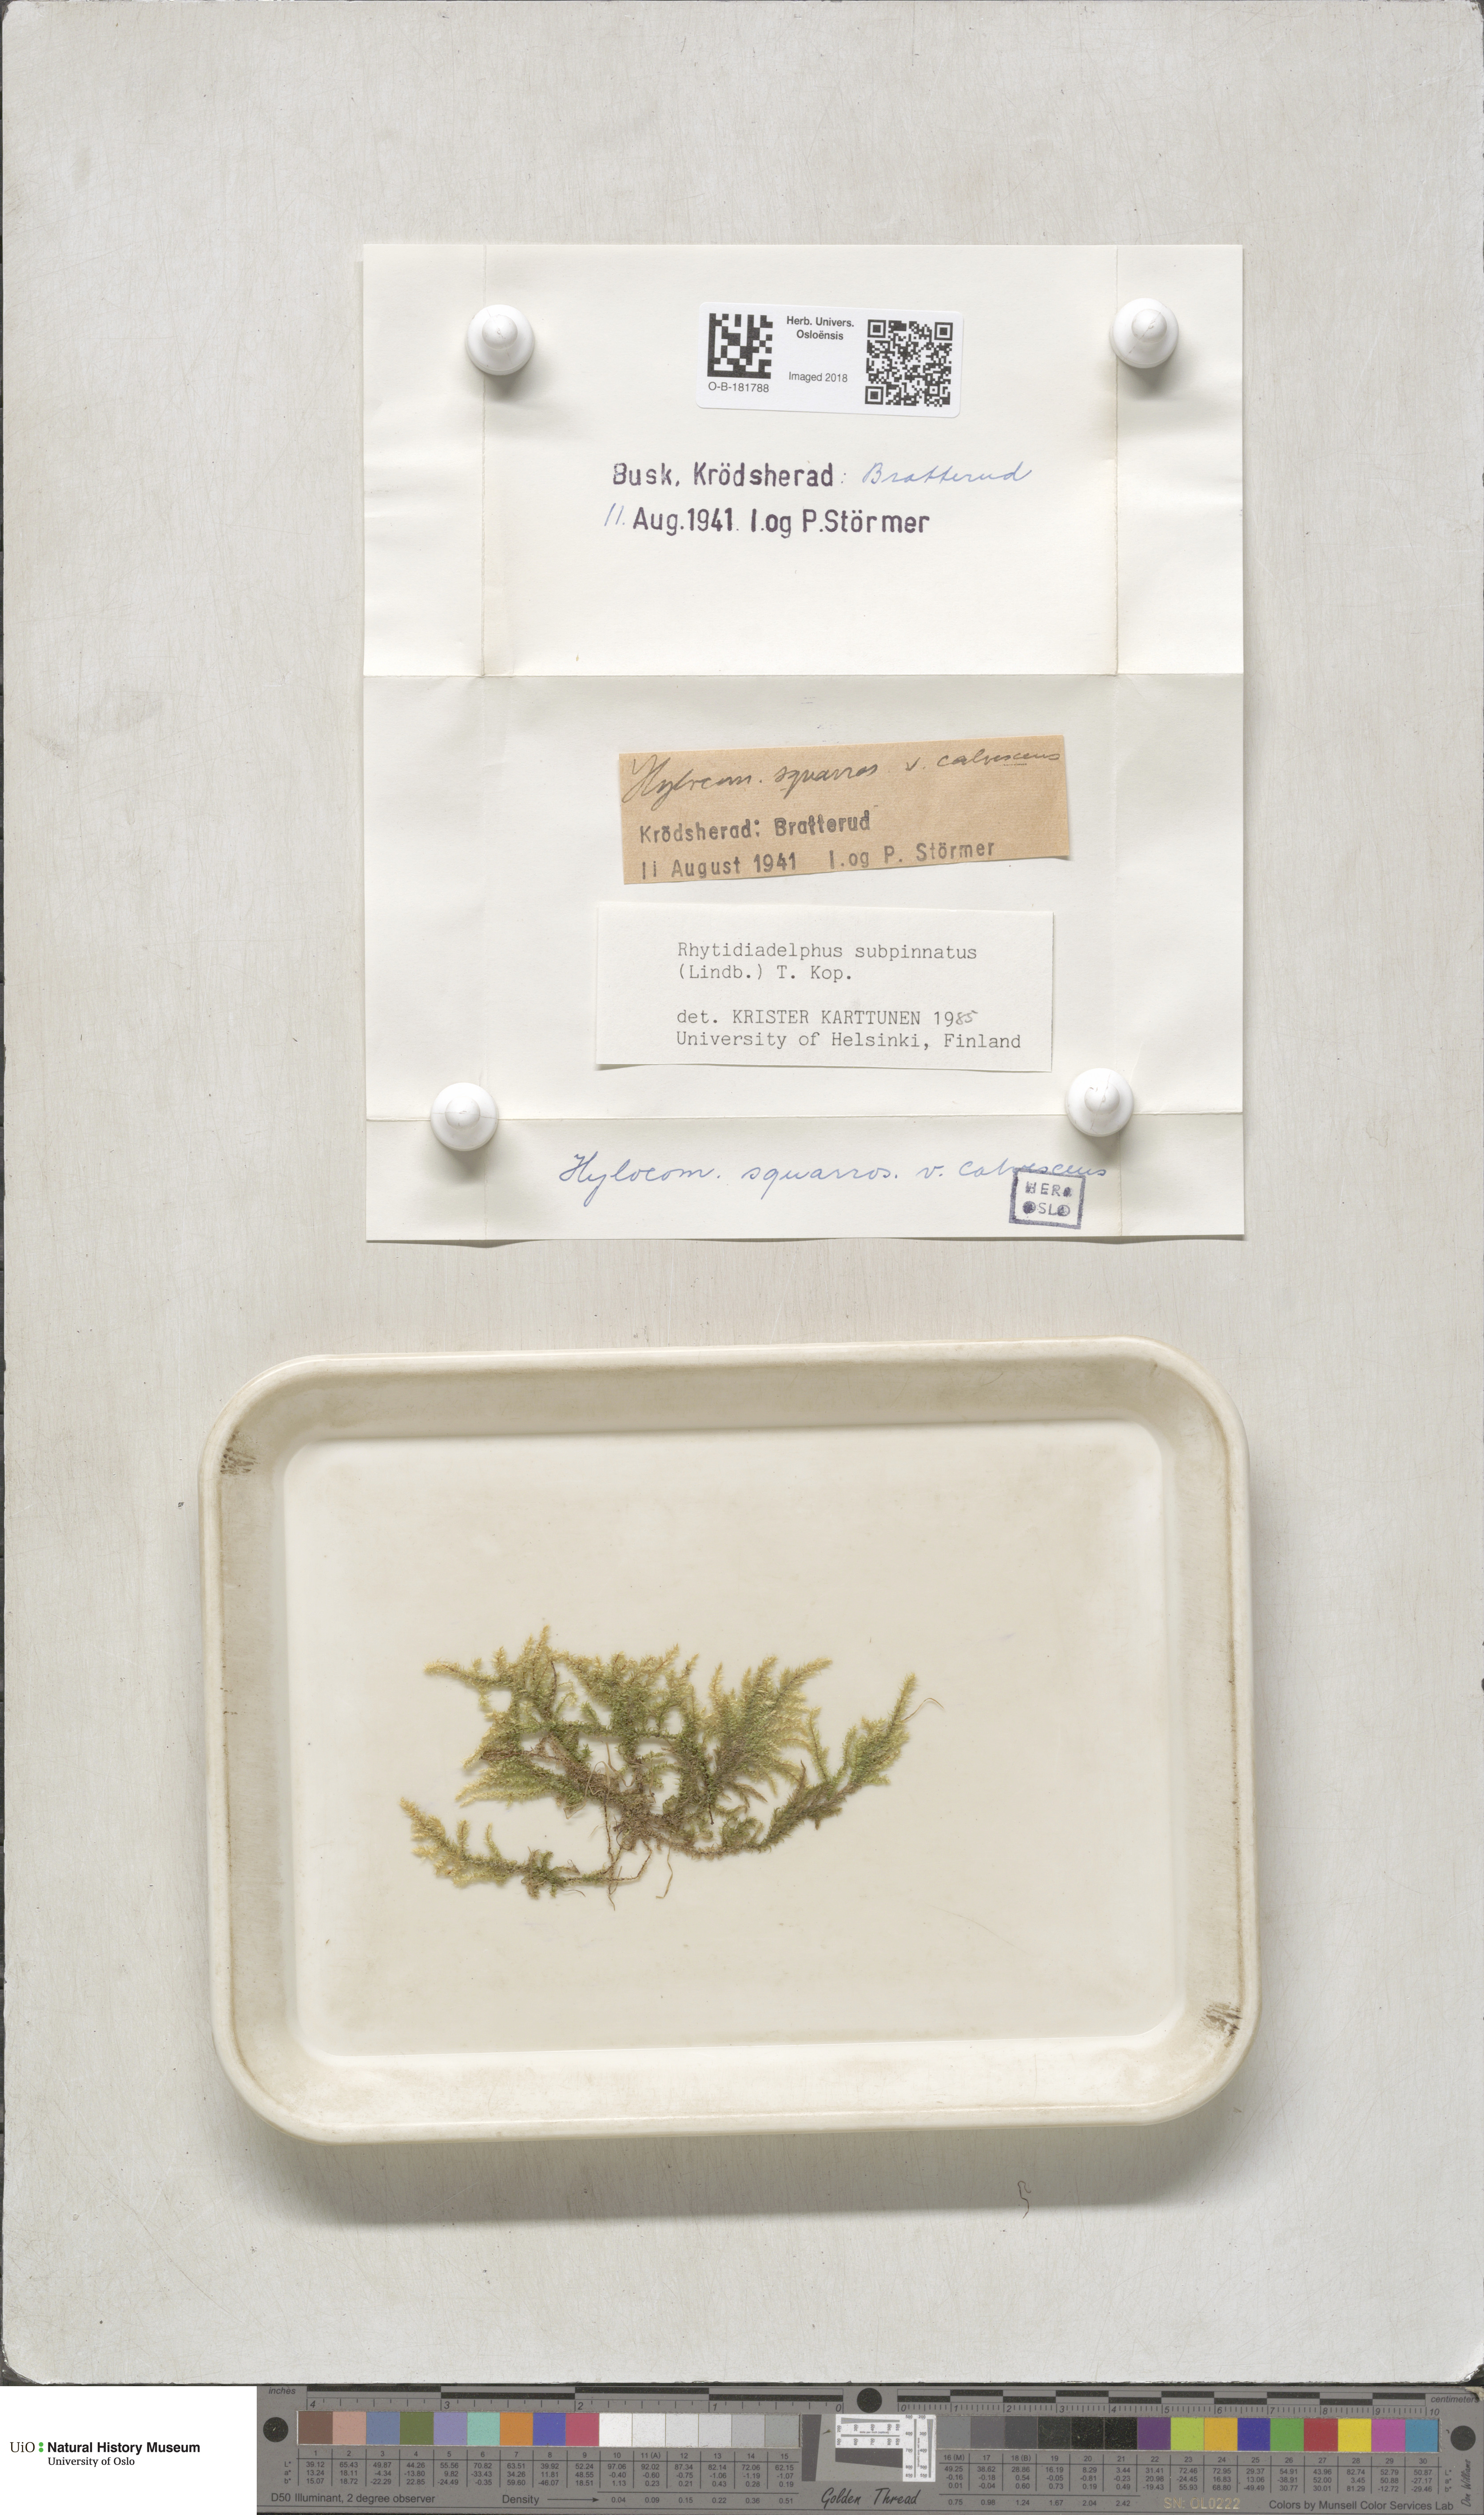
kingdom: Plantae
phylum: Bryophyta
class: Bryopsida
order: Hypnales
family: Hylocomiaceae
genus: Rhytidiadelphus
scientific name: Rhytidiadelphus subpinnatus
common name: Subpinnate gooseneck moss
